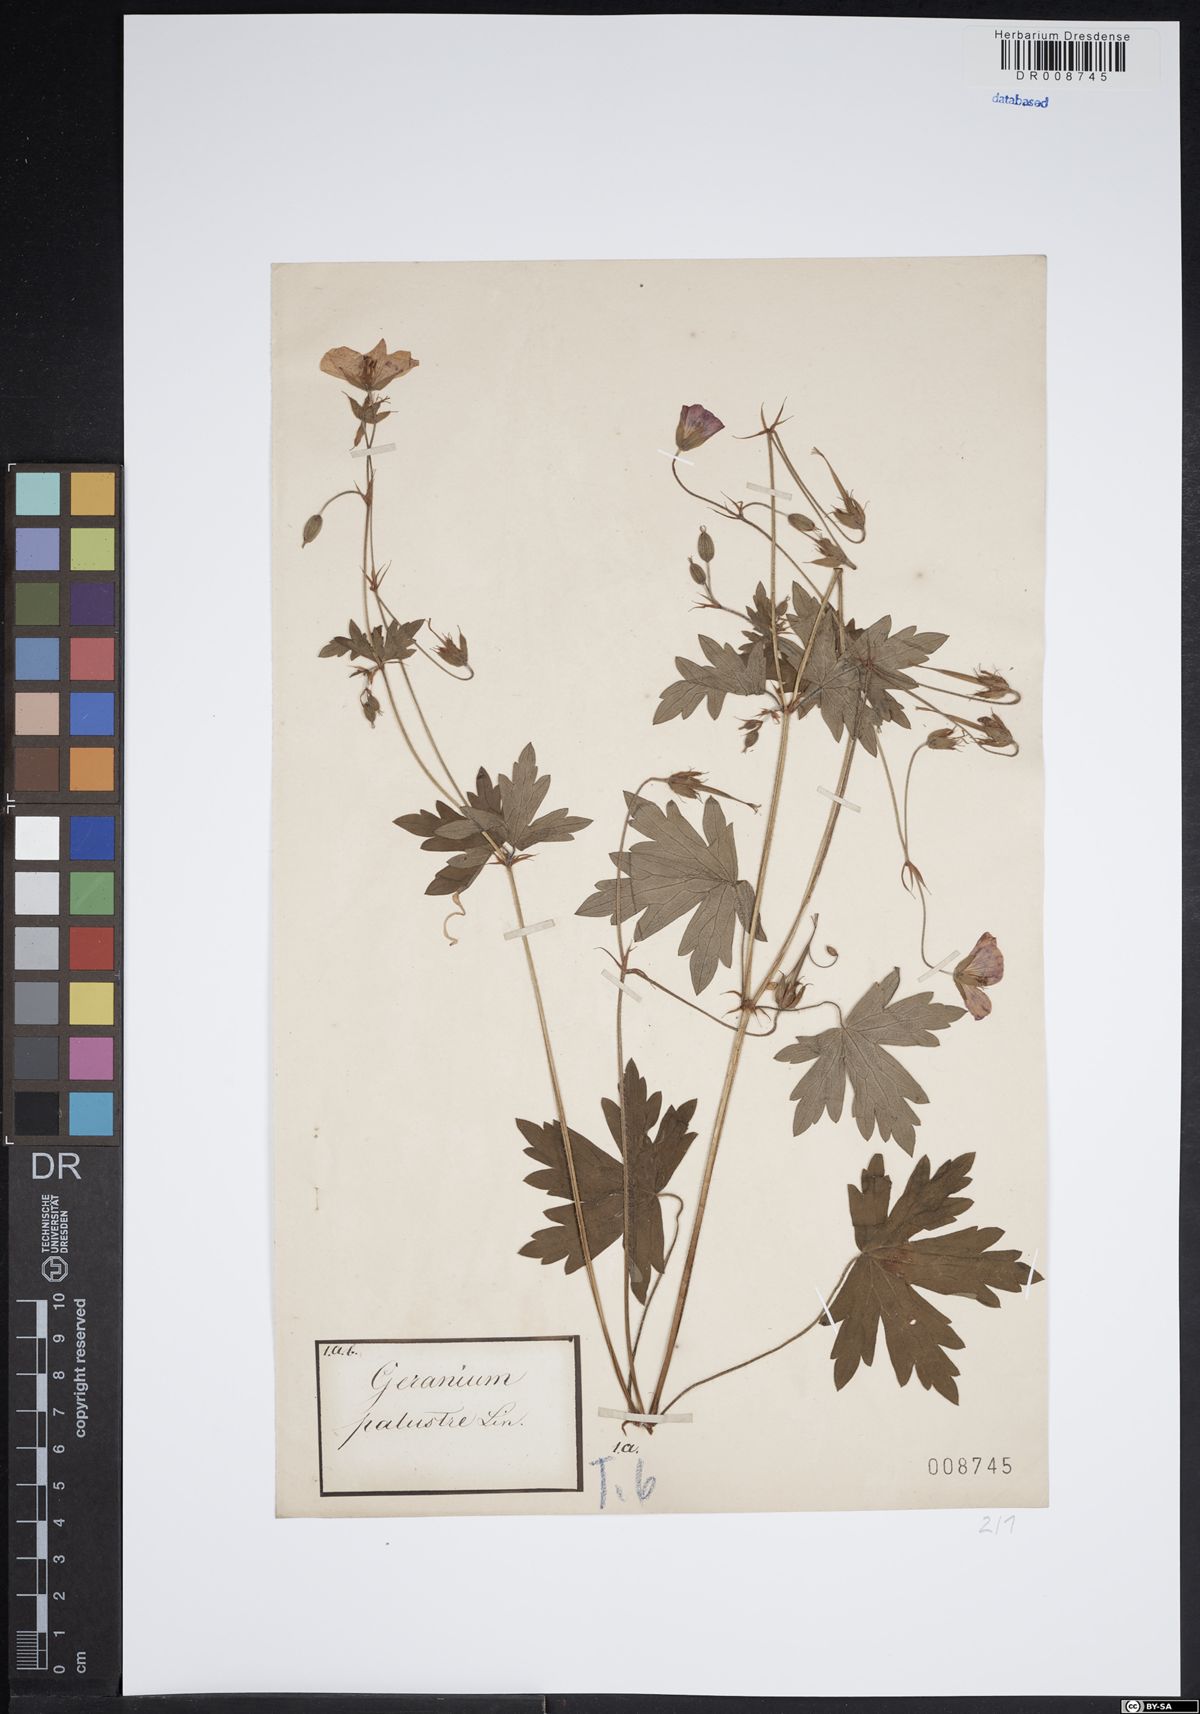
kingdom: Plantae
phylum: Tracheophyta
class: Magnoliopsida
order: Geraniales
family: Geraniaceae
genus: Geranium
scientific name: Geranium palustre
